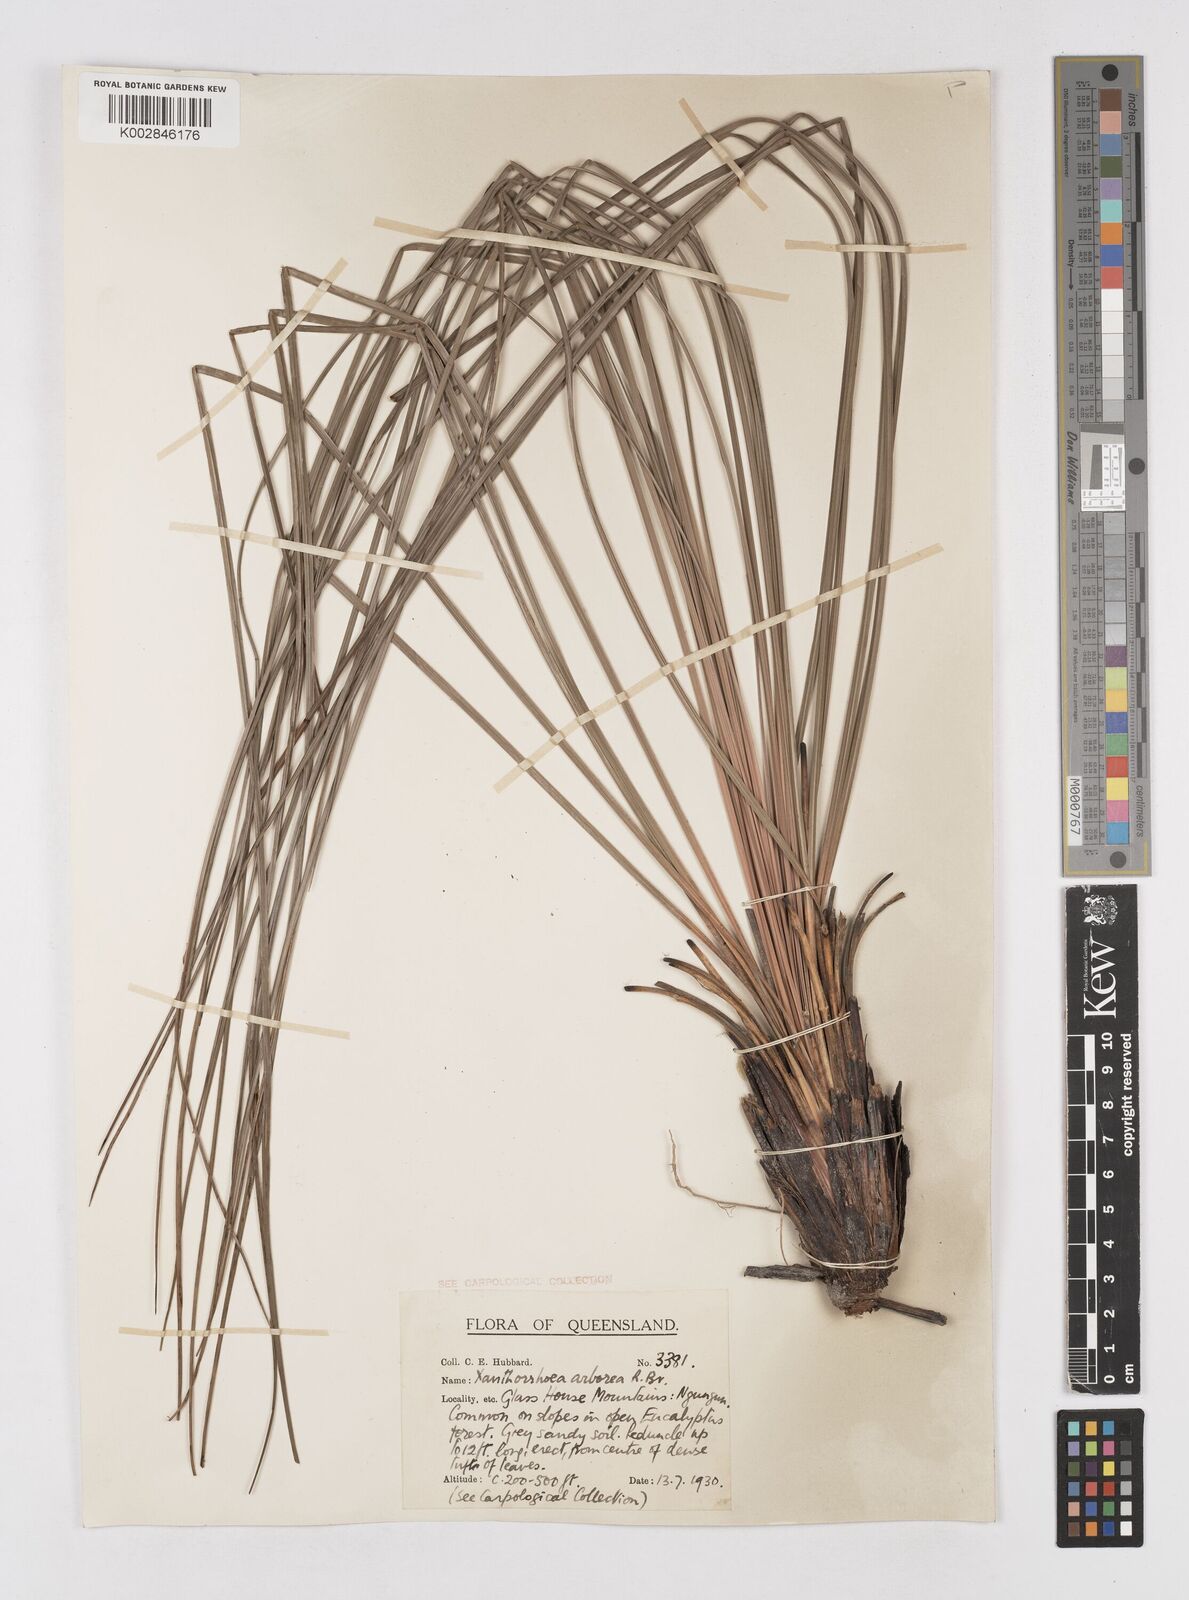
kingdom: Plantae
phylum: Tracheophyta
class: Liliopsida
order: Asparagales
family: Asphodelaceae
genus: Xanthorrhoea
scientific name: Xanthorrhoea arborea
